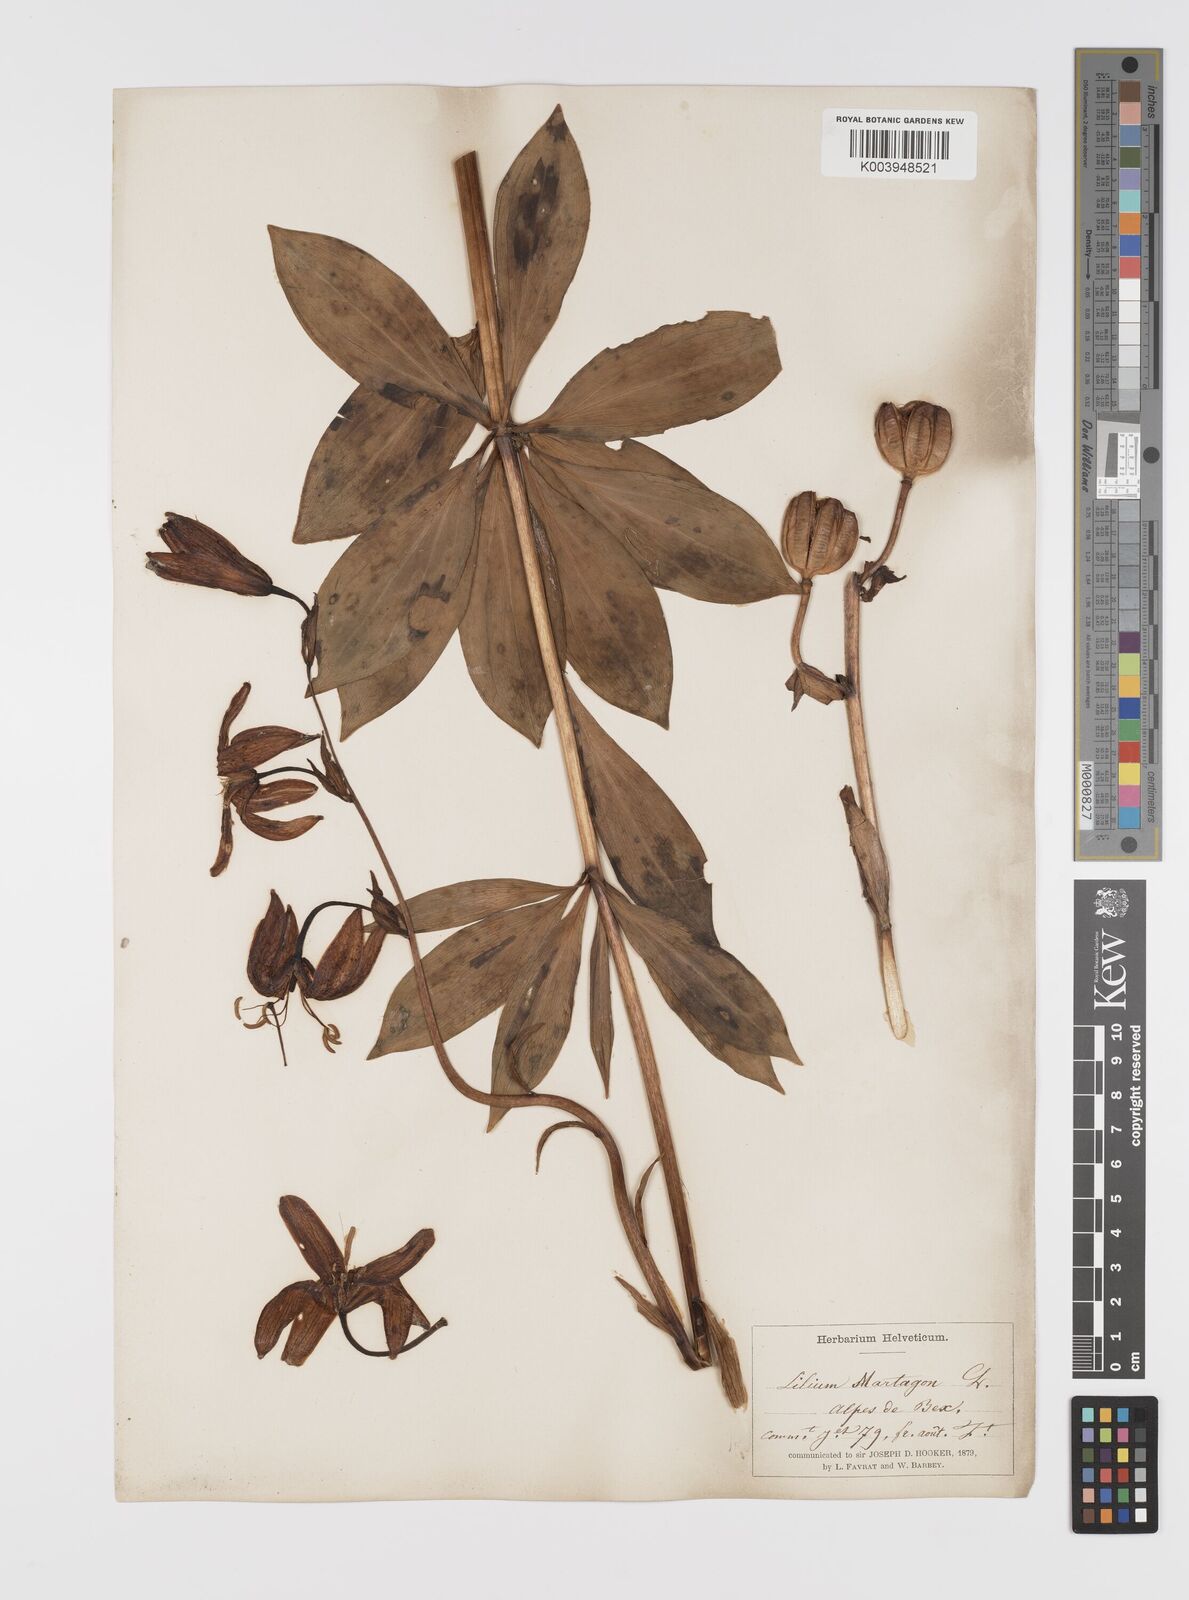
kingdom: Plantae
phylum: Tracheophyta
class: Liliopsida
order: Liliales
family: Liliaceae
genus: Lilium
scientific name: Lilium martagon
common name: Martagon lily
